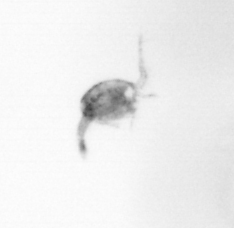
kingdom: Animalia
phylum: Arthropoda
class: Copepoda
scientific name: Copepoda
